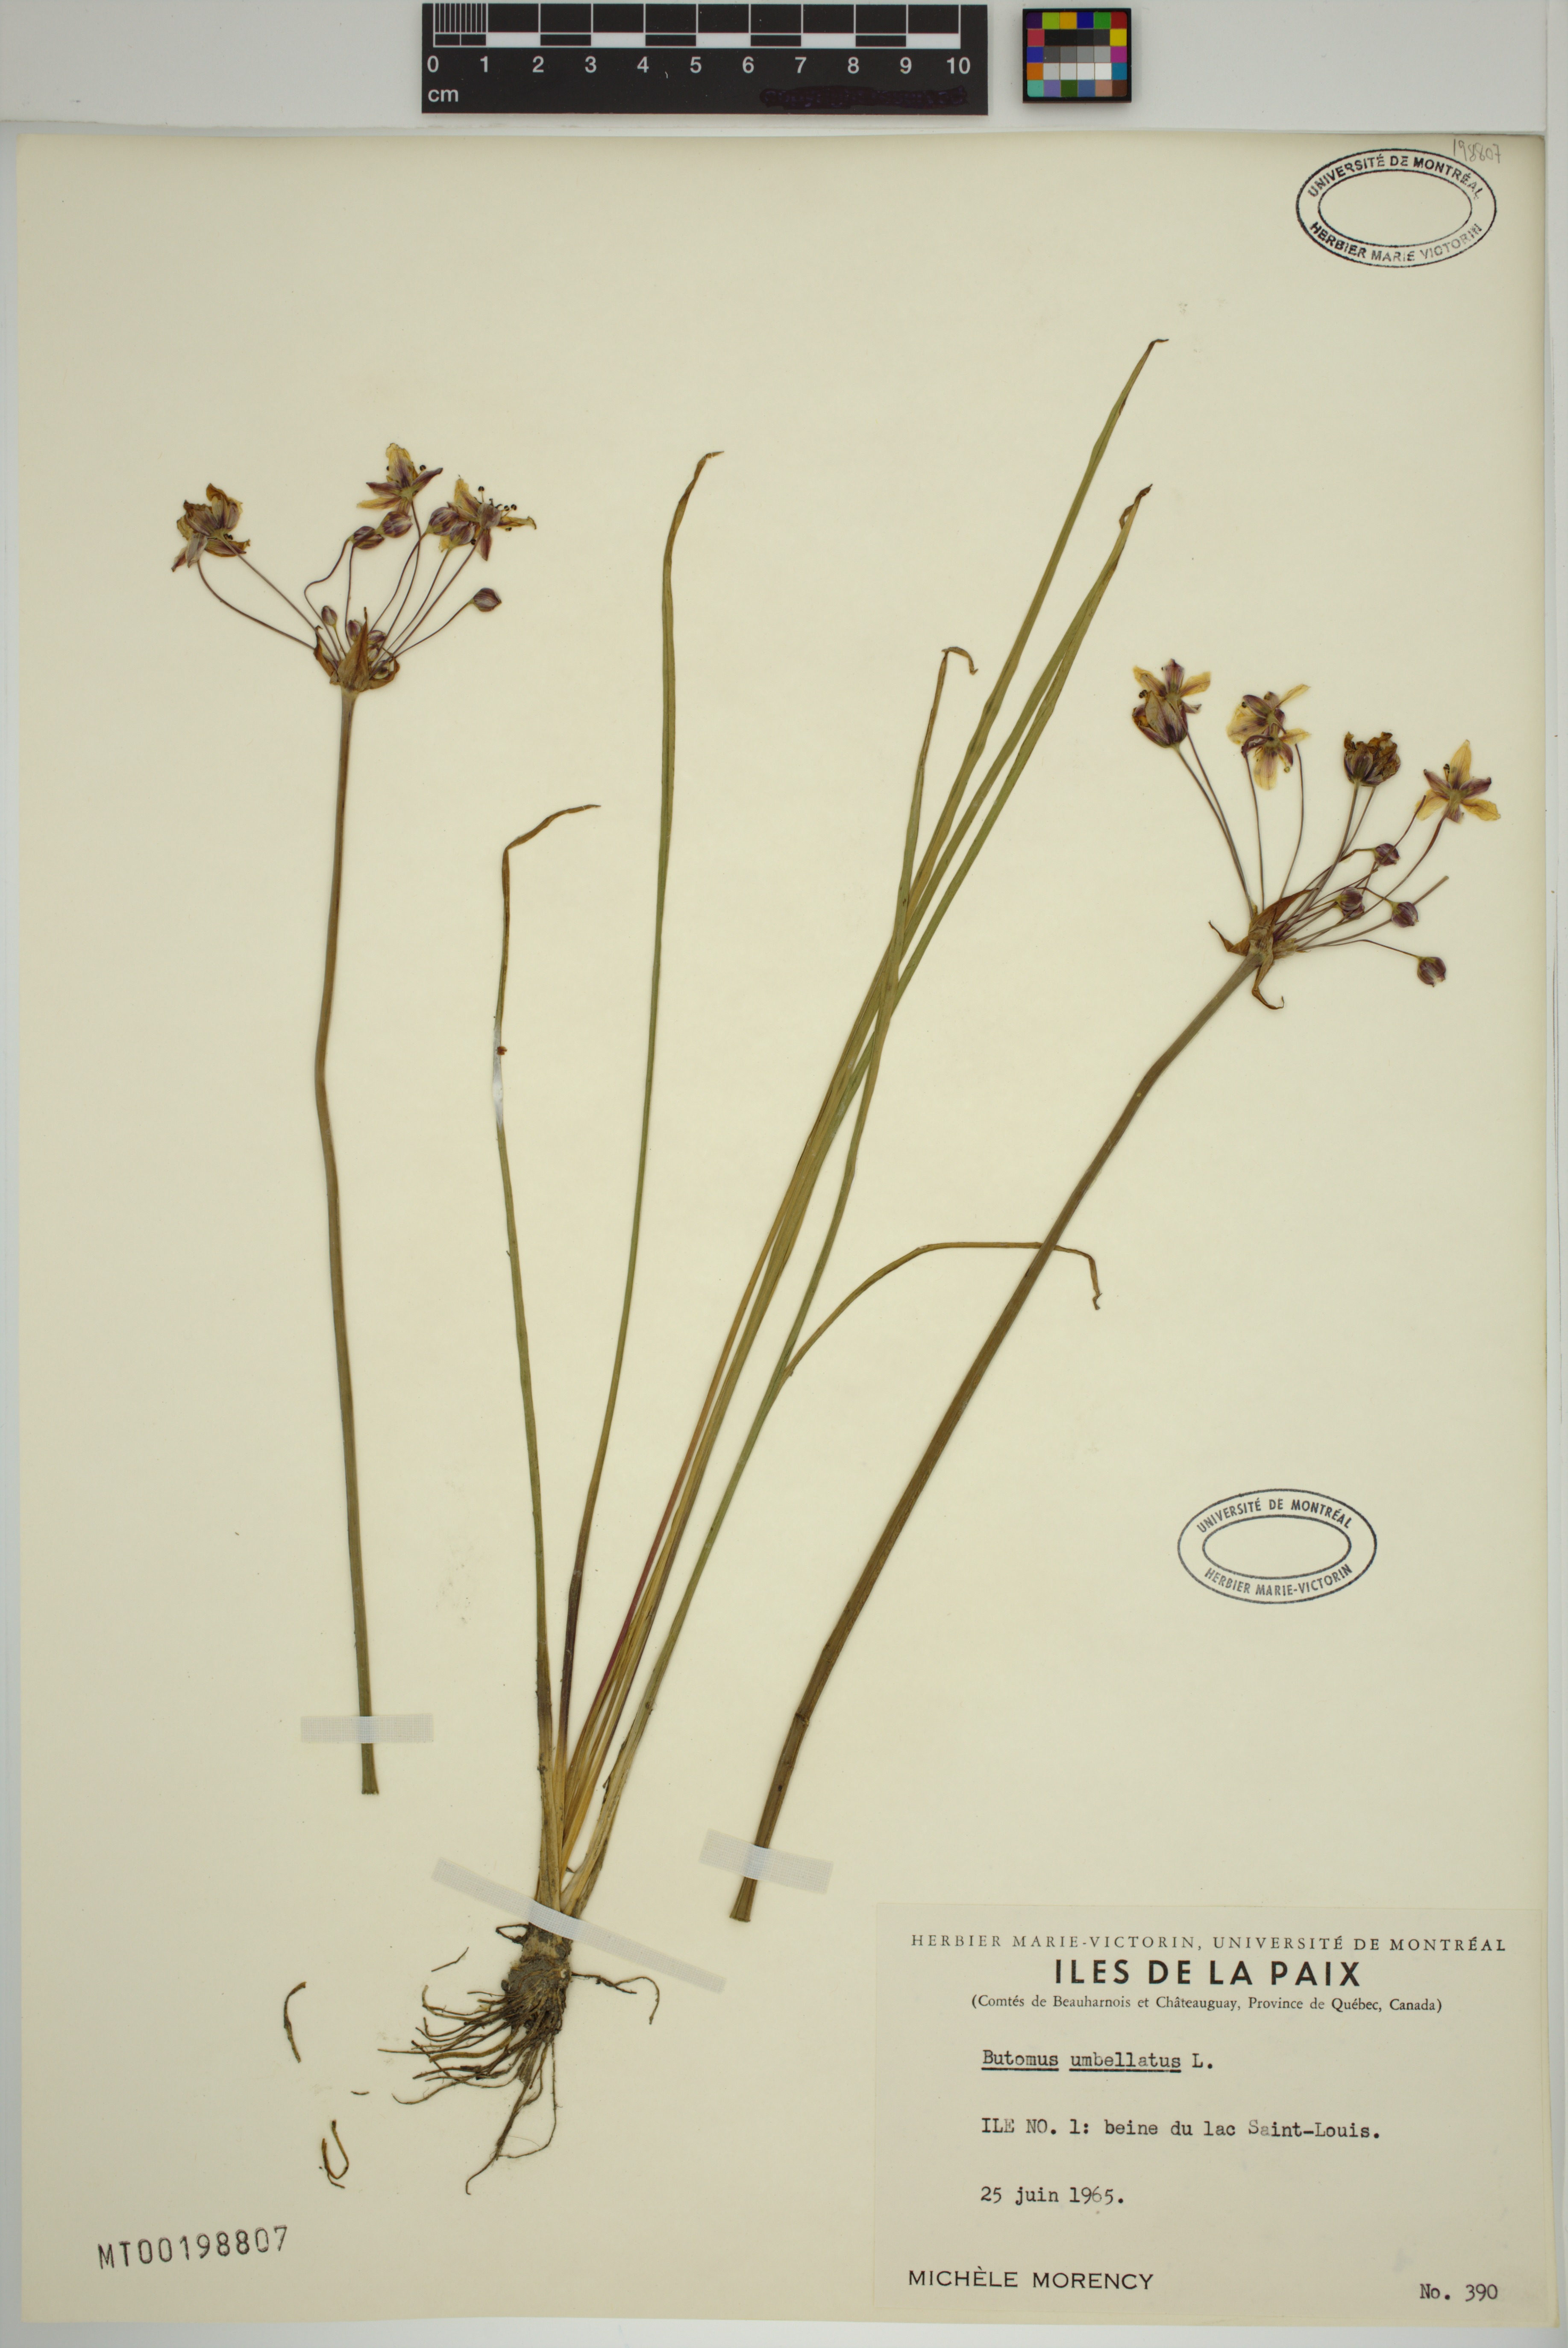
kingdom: Plantae
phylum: Tracheophyta
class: Liliopsida
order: Alismatales
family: Butomaceae
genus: Butomus
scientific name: Butomus umbellatus
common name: Flowering-rush
